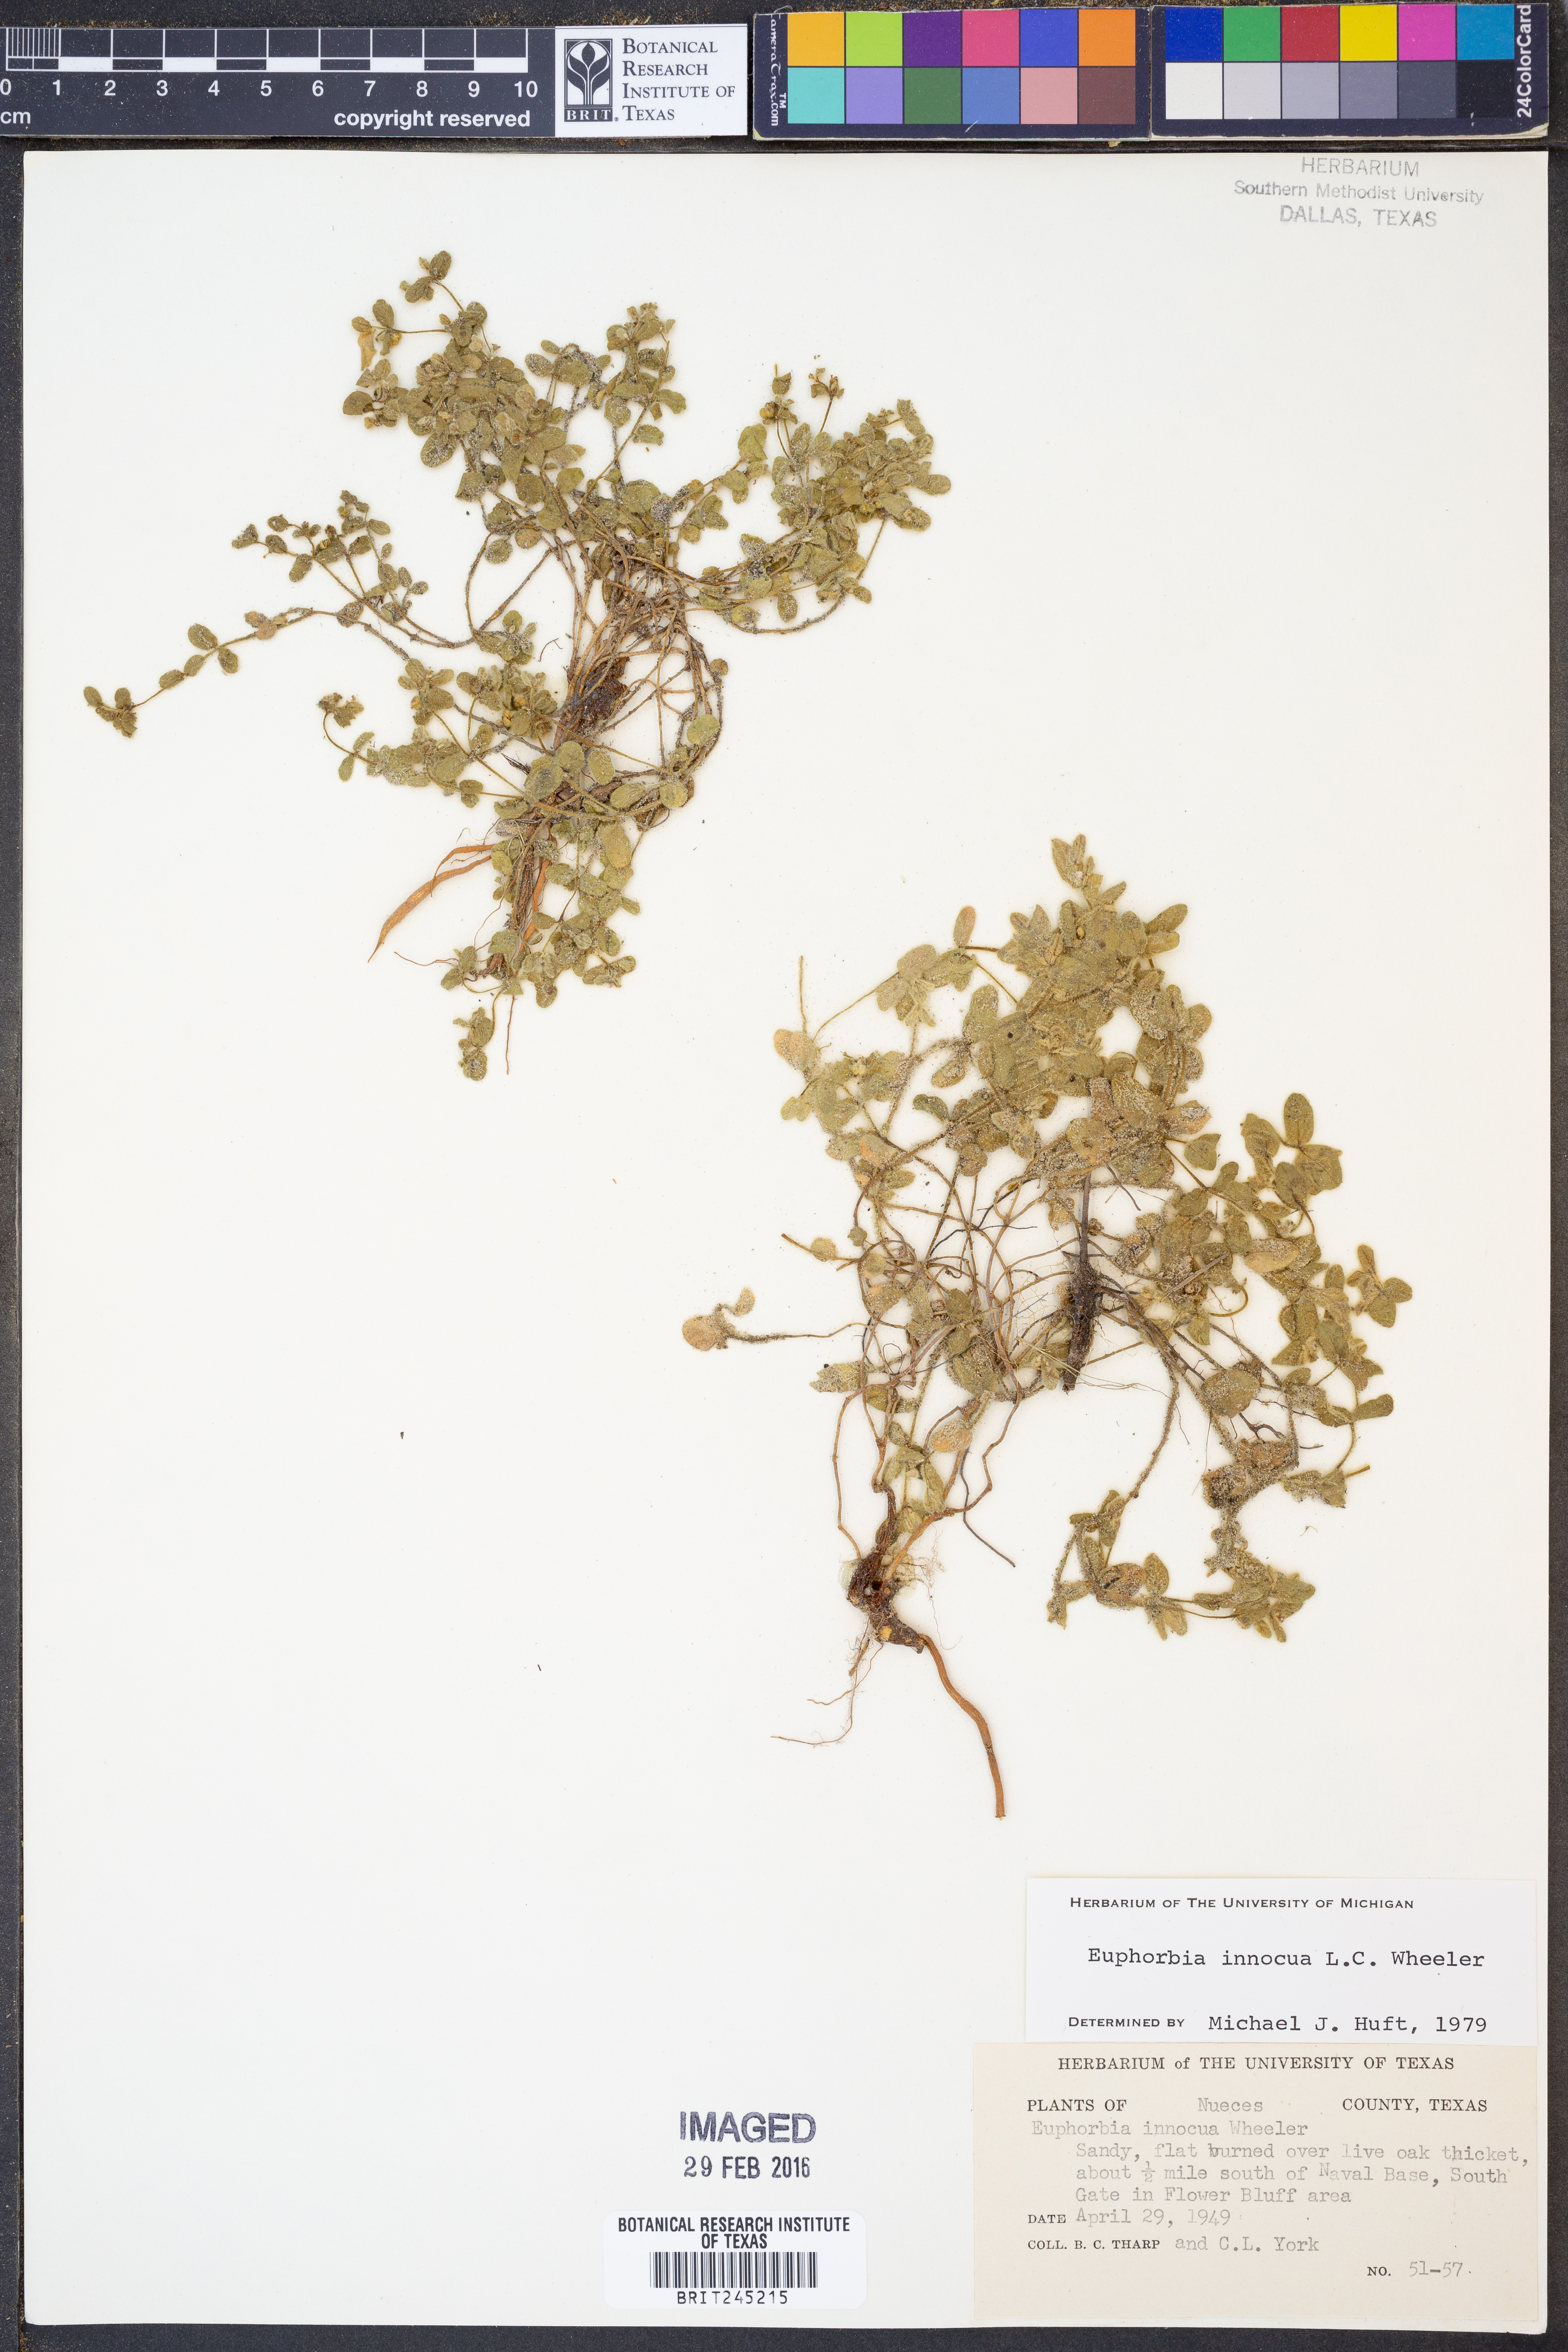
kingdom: Plantae
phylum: Tracheophyta
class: Magnoliopsida
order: Malpighiales
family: Euphorbiaceae
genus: Euphorbia
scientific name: Euphorbia innocua
